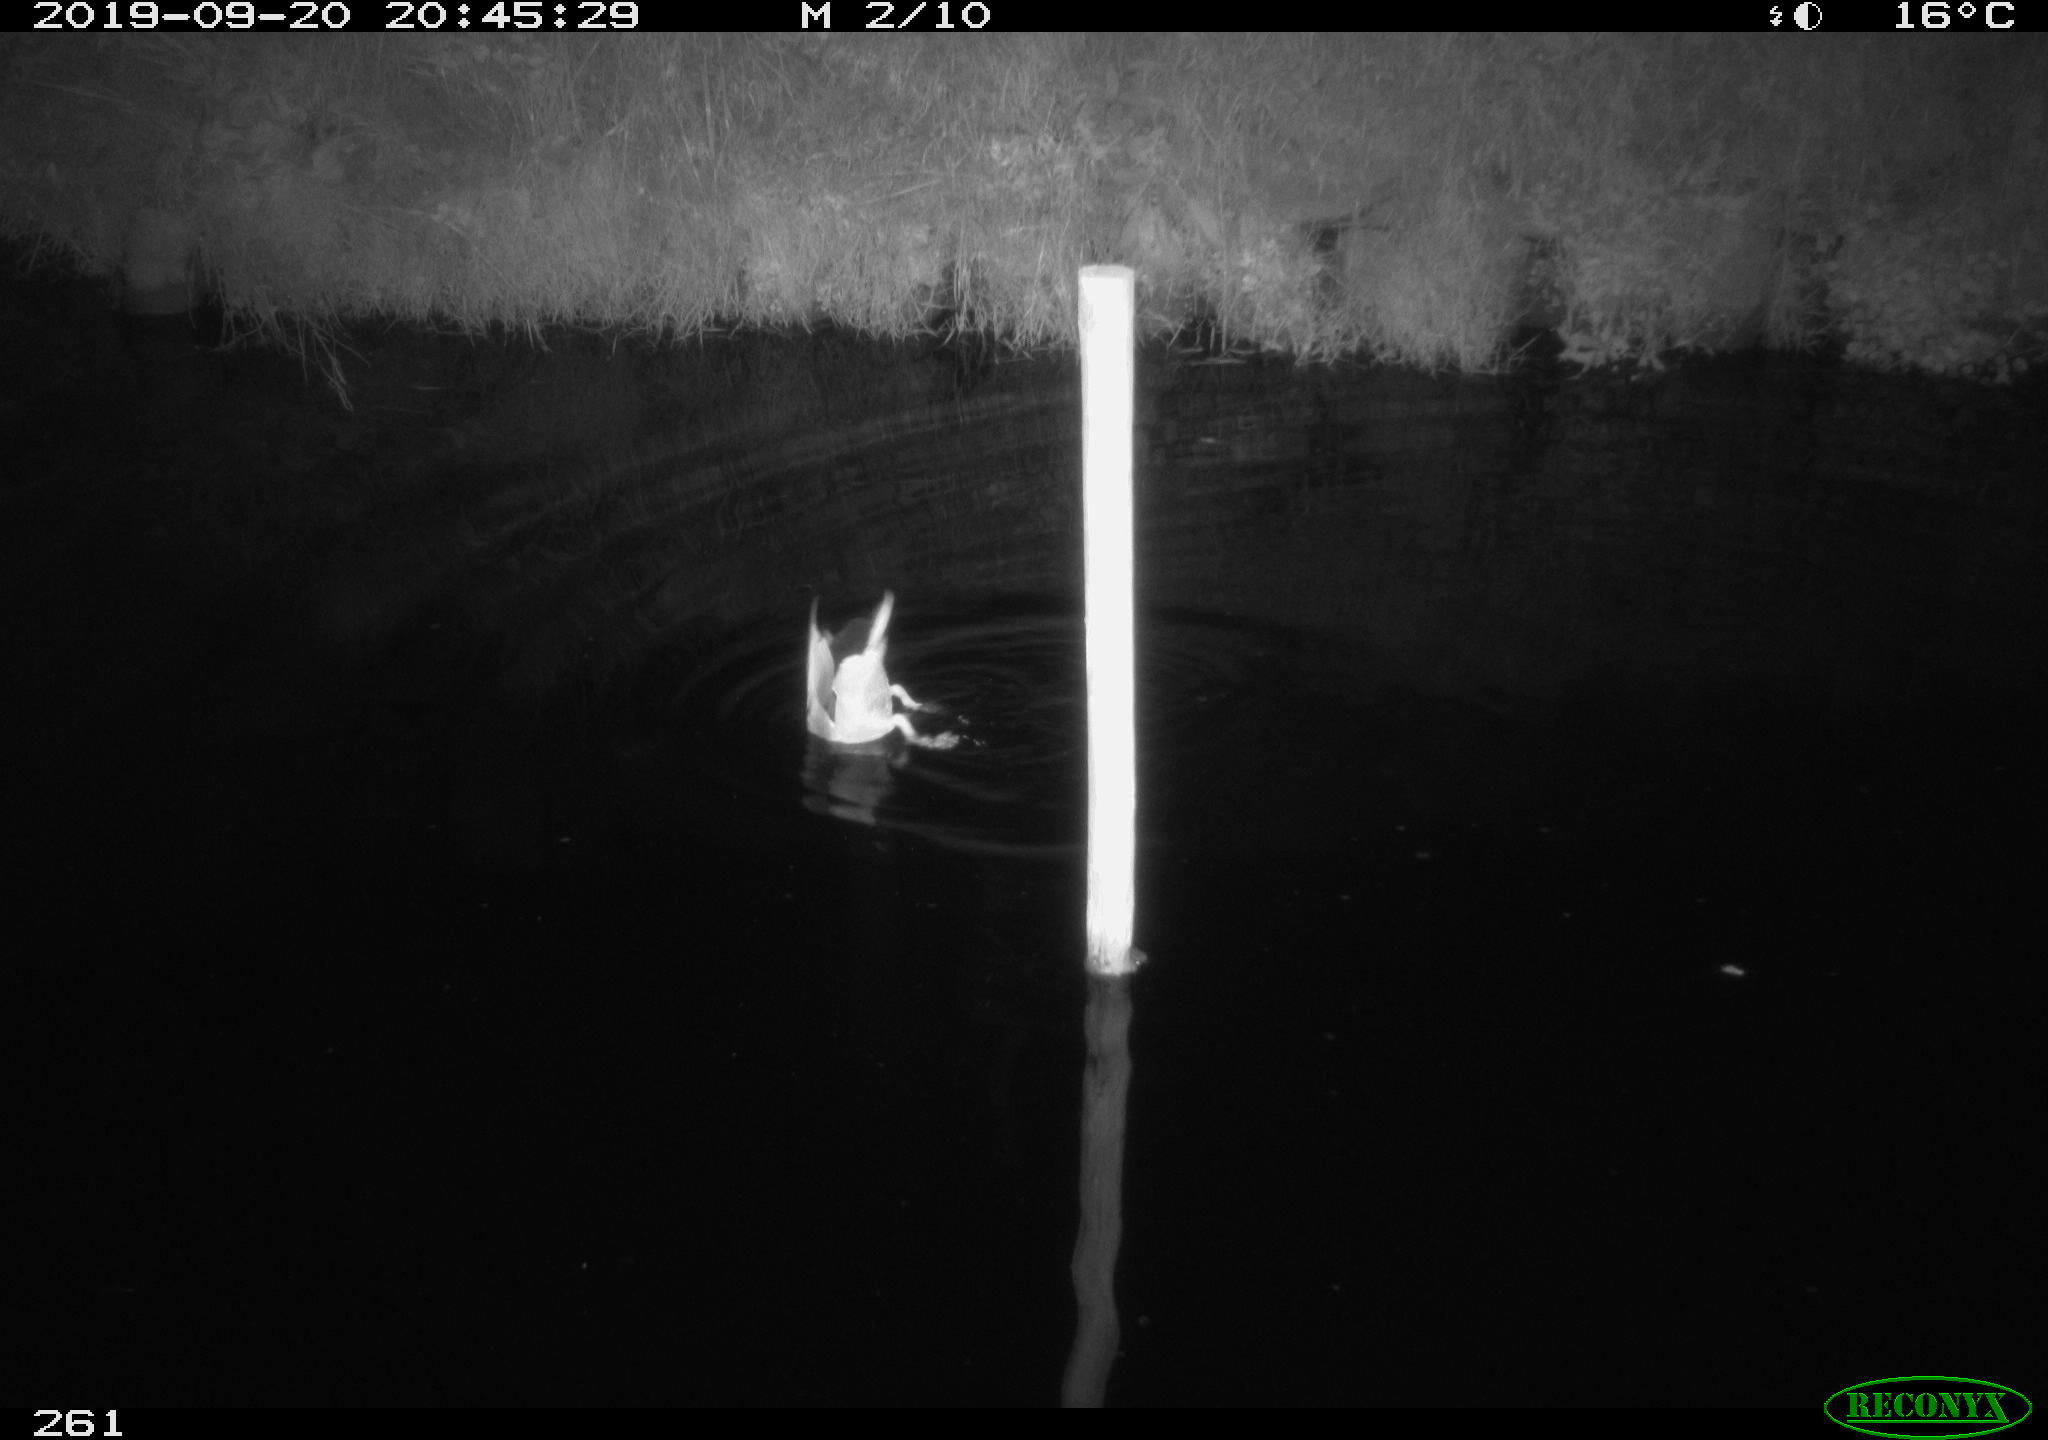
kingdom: Animalia
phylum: Chordata
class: Aves
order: Anseriformes
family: Anatidae
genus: Anas
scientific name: Anas platyrhynchos
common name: Mallard
